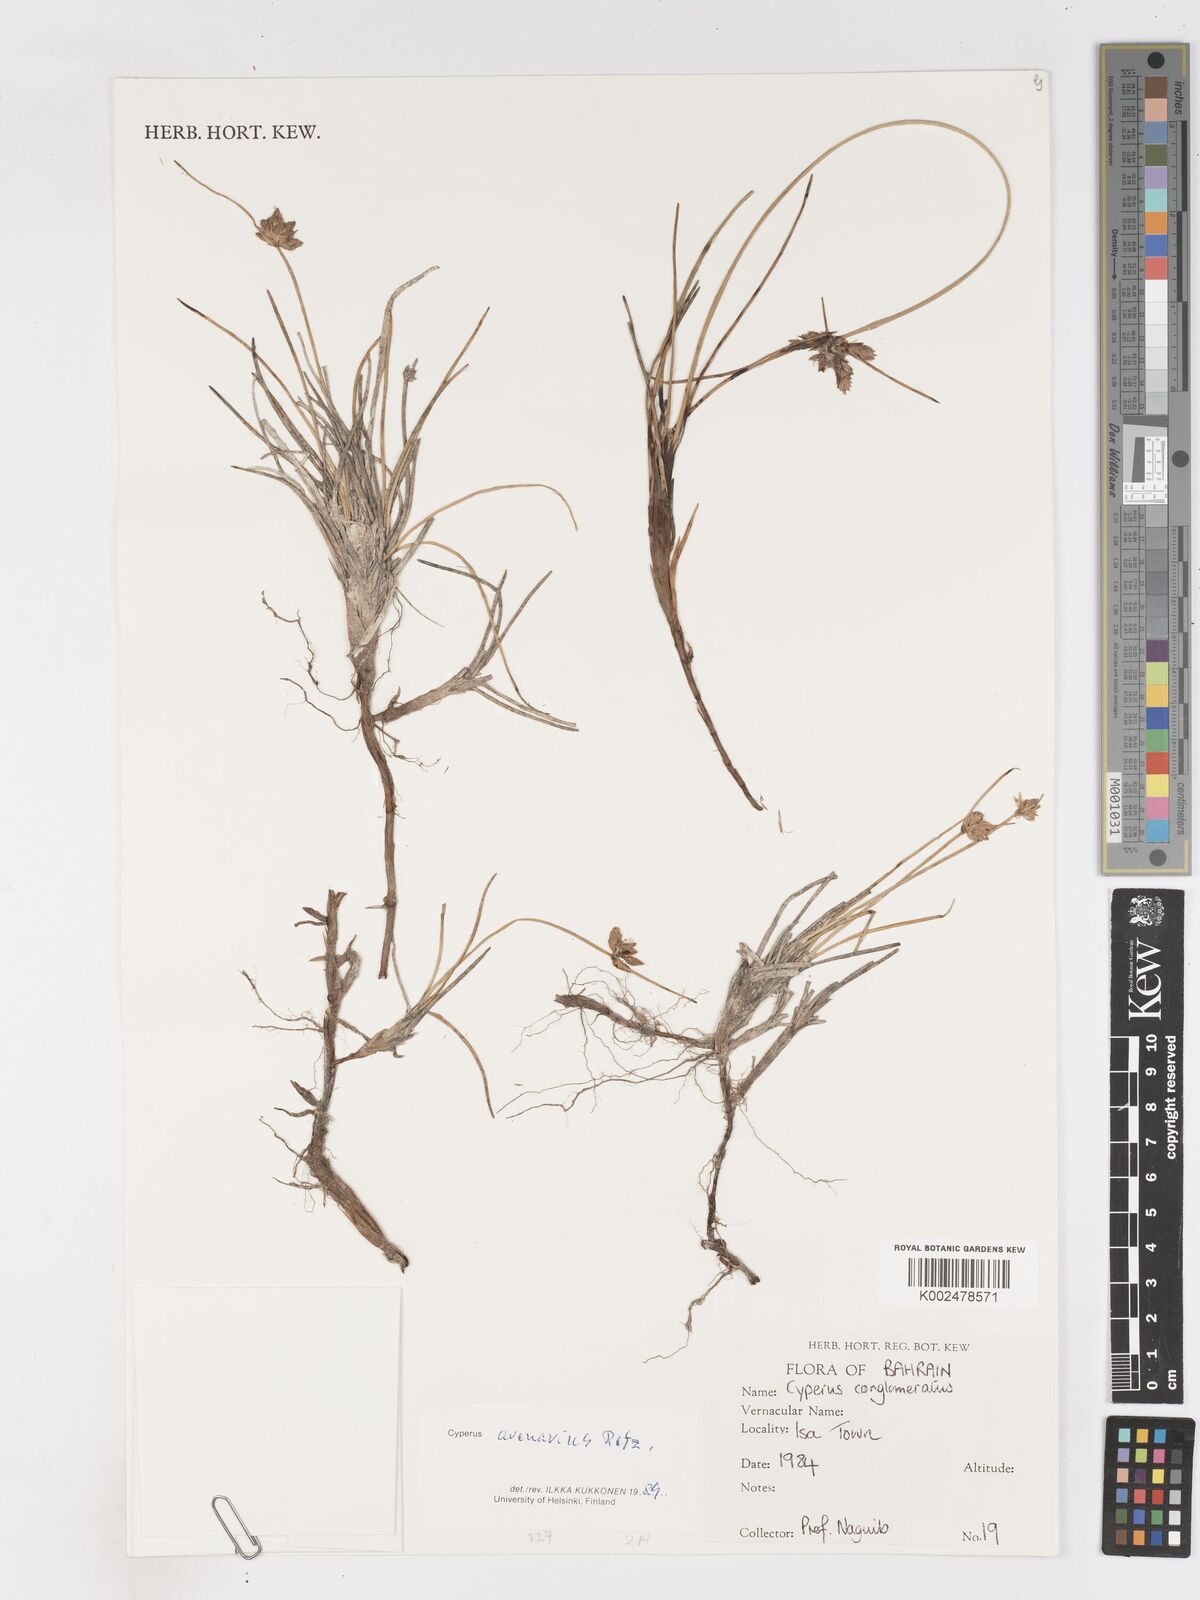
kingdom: Plantae
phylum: Tracheophyta
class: Liliopsida
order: Poales
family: Cyperaceae
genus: Cyperus
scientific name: Cyperus arenarius
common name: Dwarf sedge
